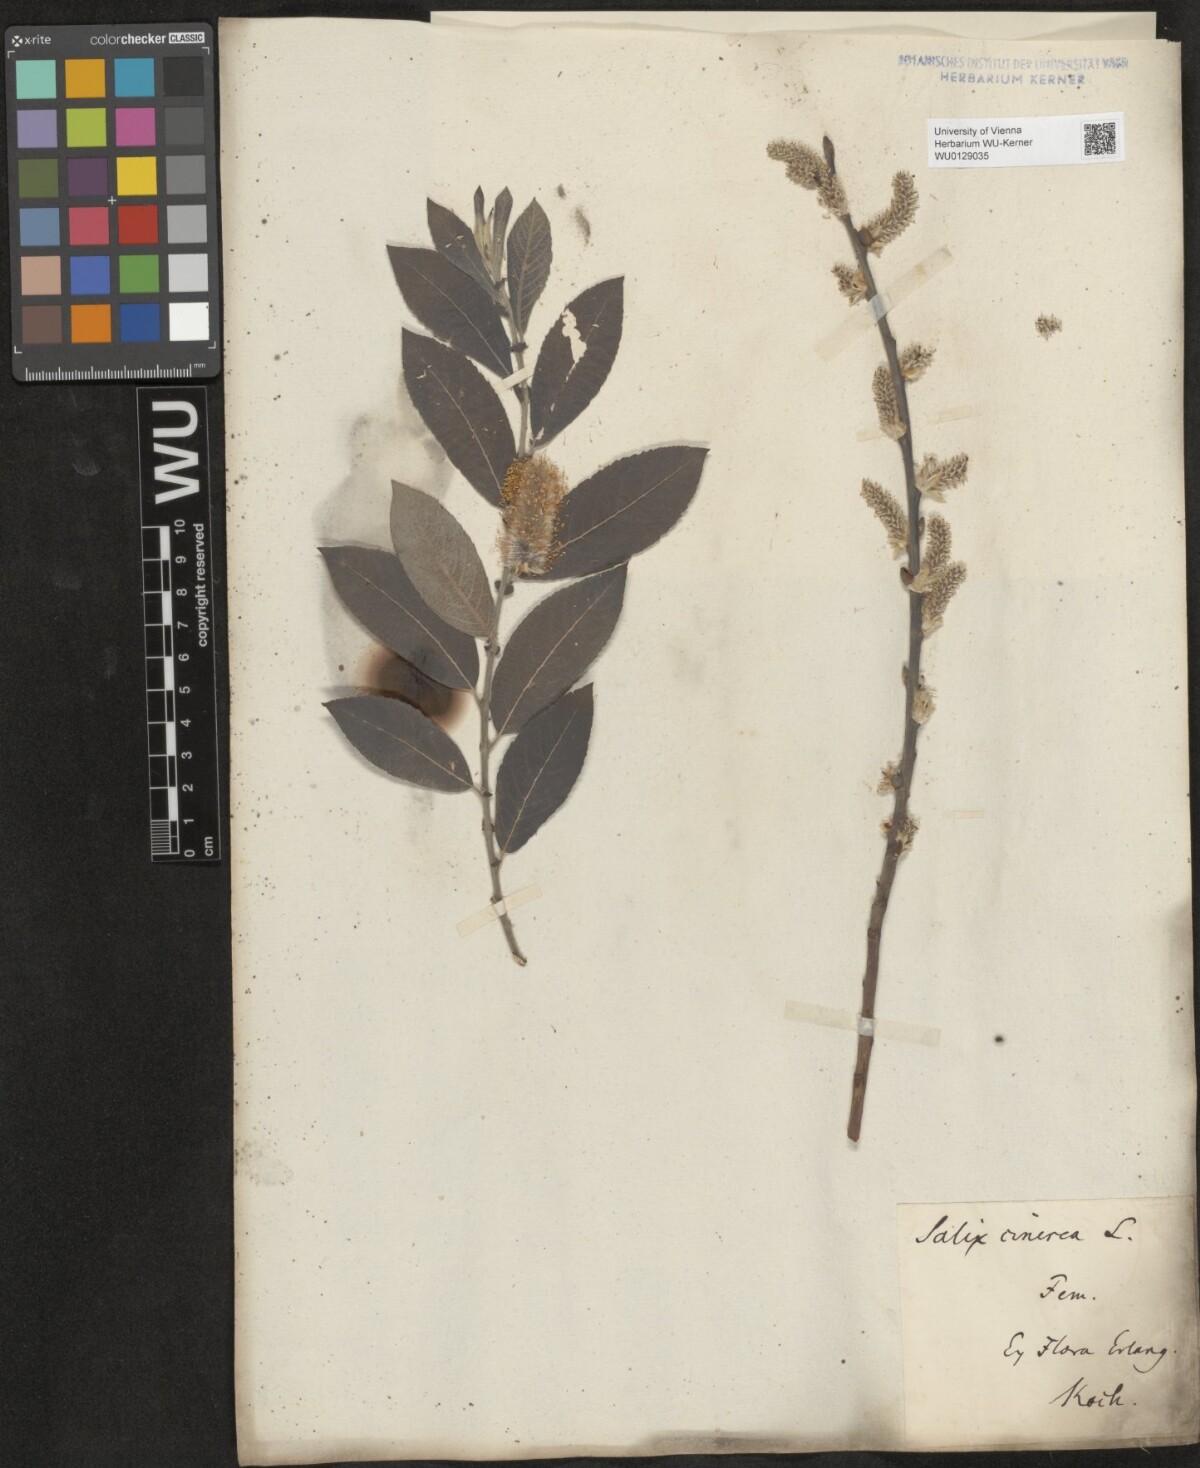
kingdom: Plantae
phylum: Tracheophyta
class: Magnoliopsida
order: Malpighiales
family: Salicaceae
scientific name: Salicaceae
